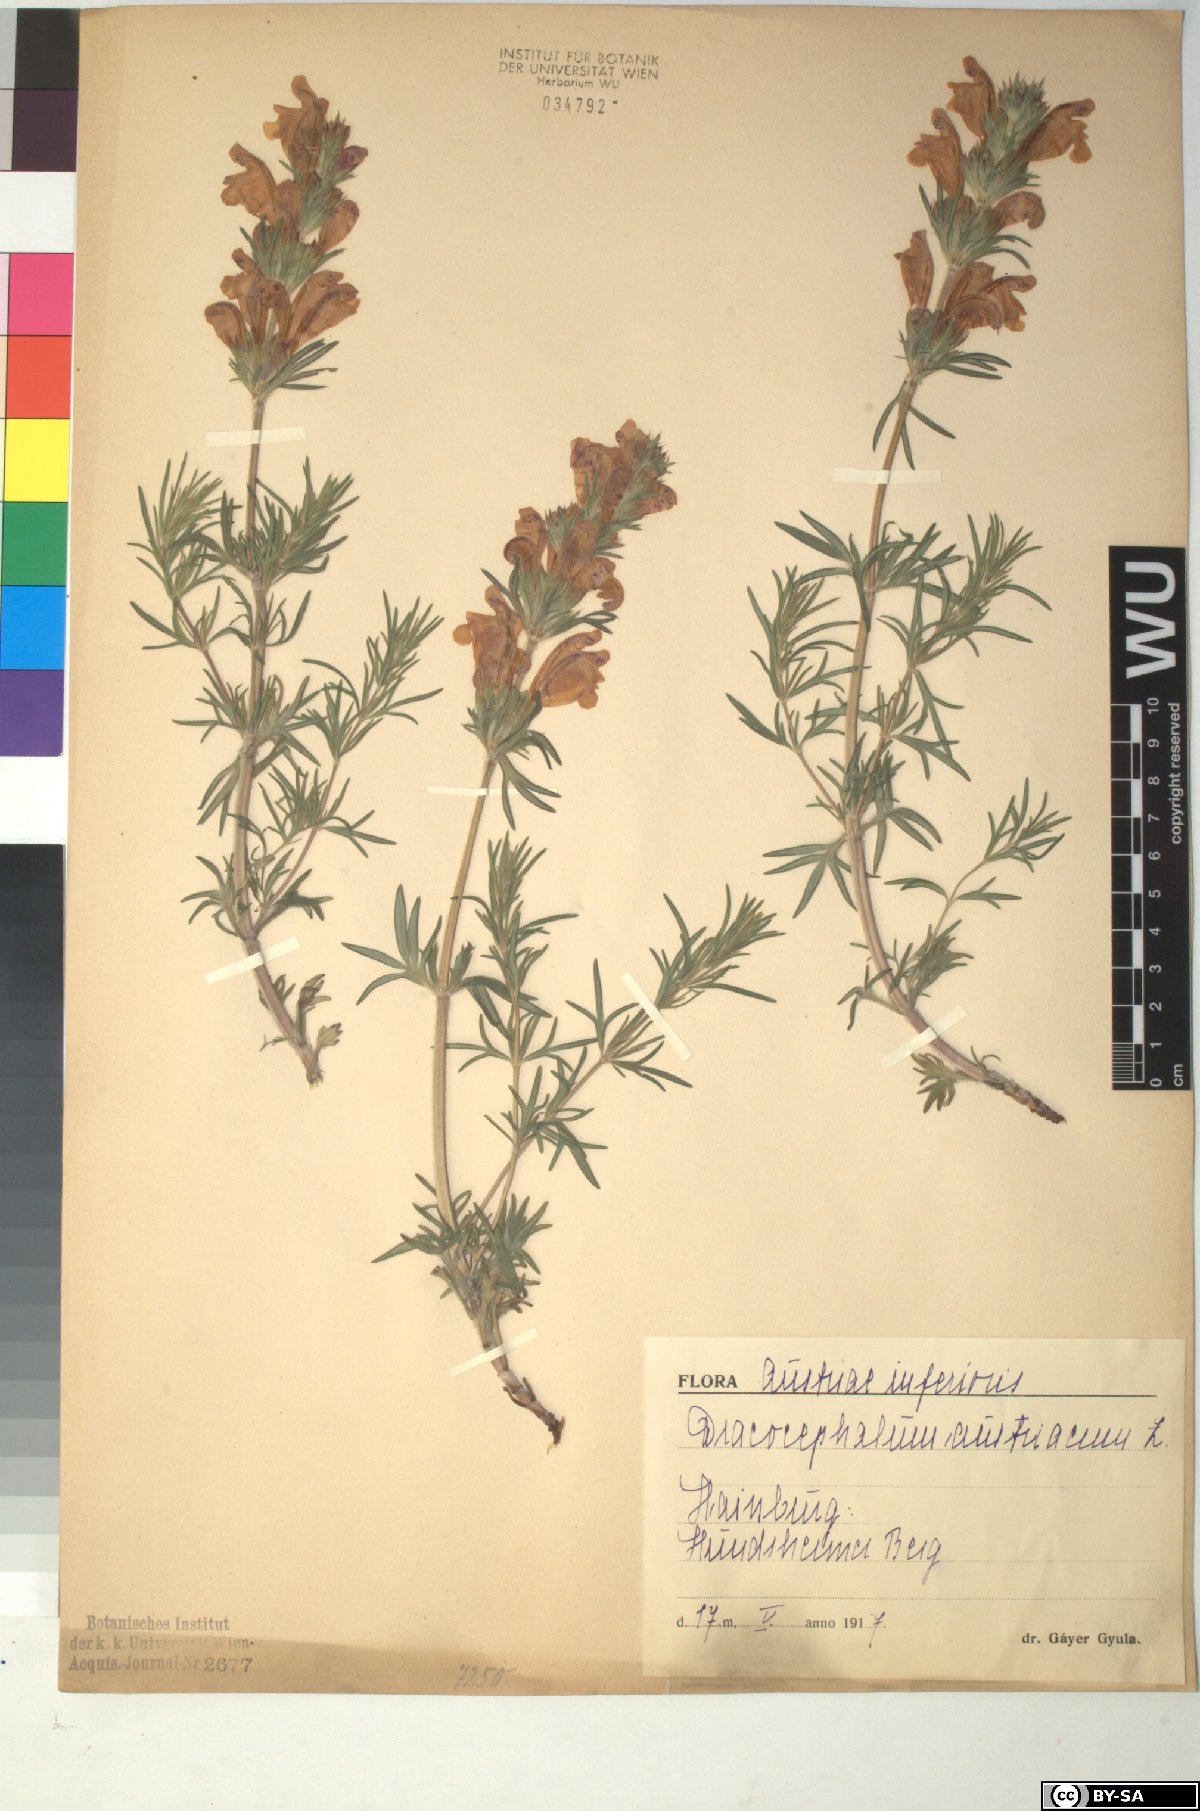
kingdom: Plantae
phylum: Tracheophyta
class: Magnoliopsida
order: Lamiales
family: Lamiaceae
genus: Dracocephalum
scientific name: Dracocephalum austriacum
